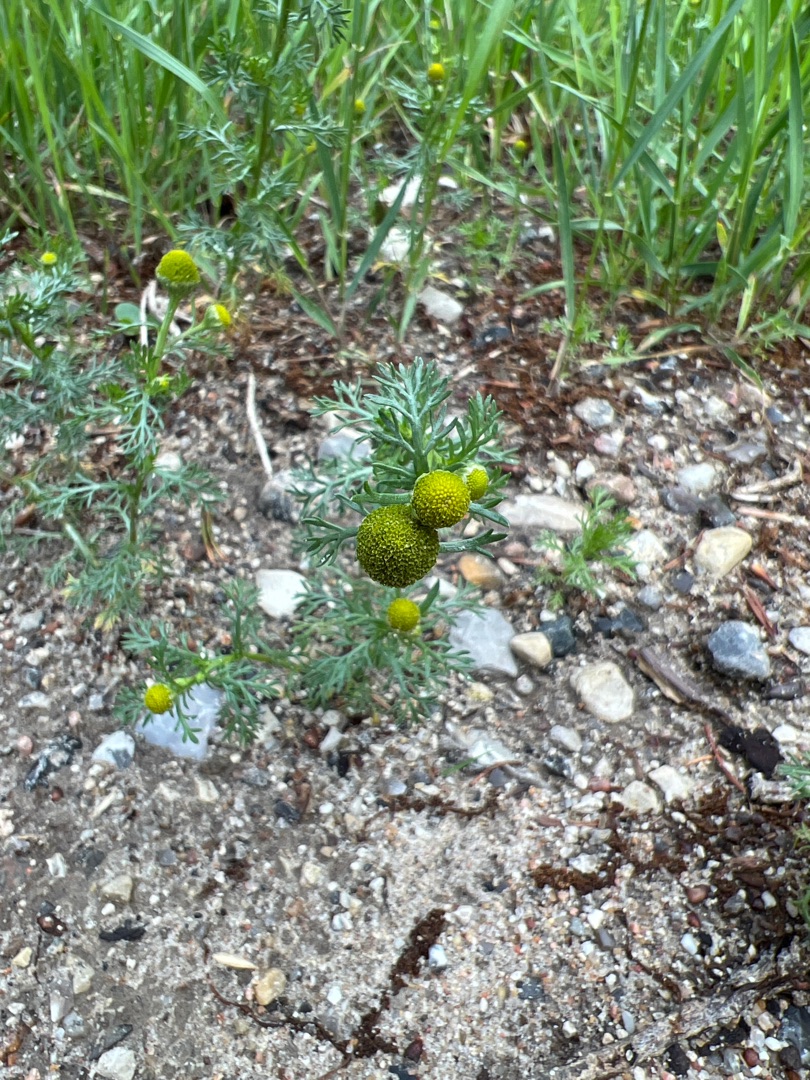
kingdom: Plantae
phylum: Tracheophyta
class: Magnoliopsida
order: Asterales
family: Asteraceae
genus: Matricaria
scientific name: Matricaria discoidea
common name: Skive-kamille
